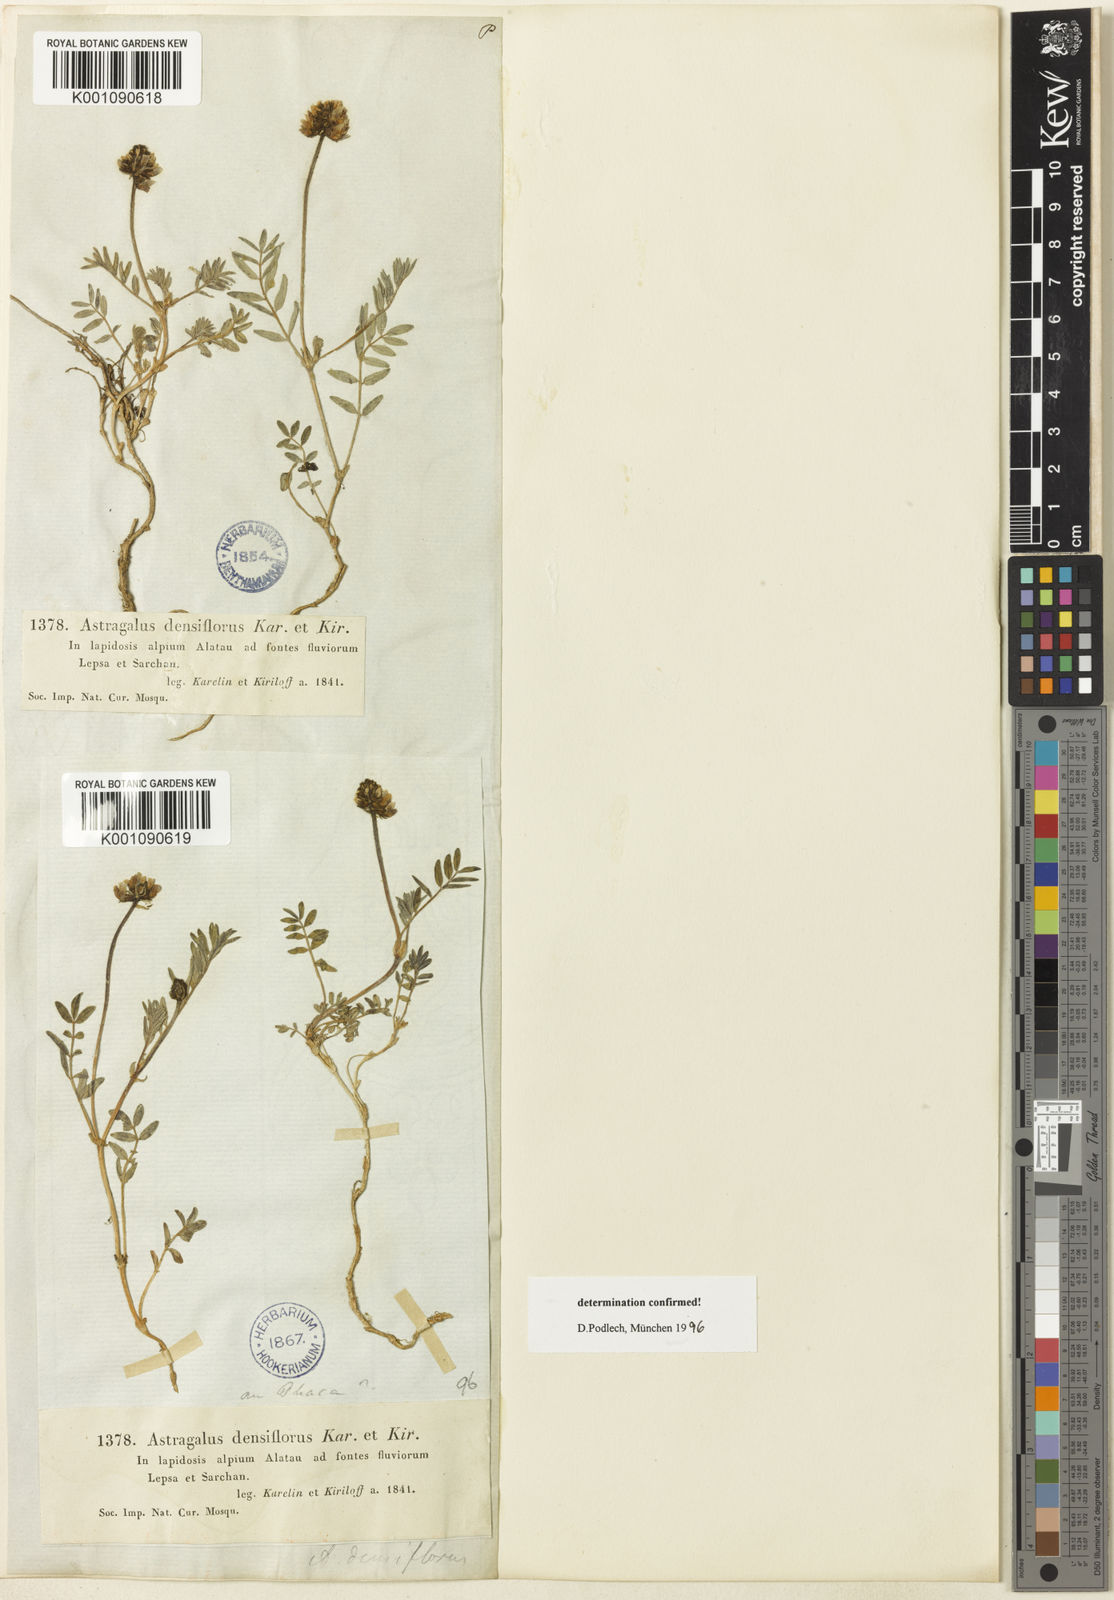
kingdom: Plantae
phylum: Tracheophyta
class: Magnoliopsida
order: Fabales
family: Fabaceae
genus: Astragalus
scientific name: Astragalus
